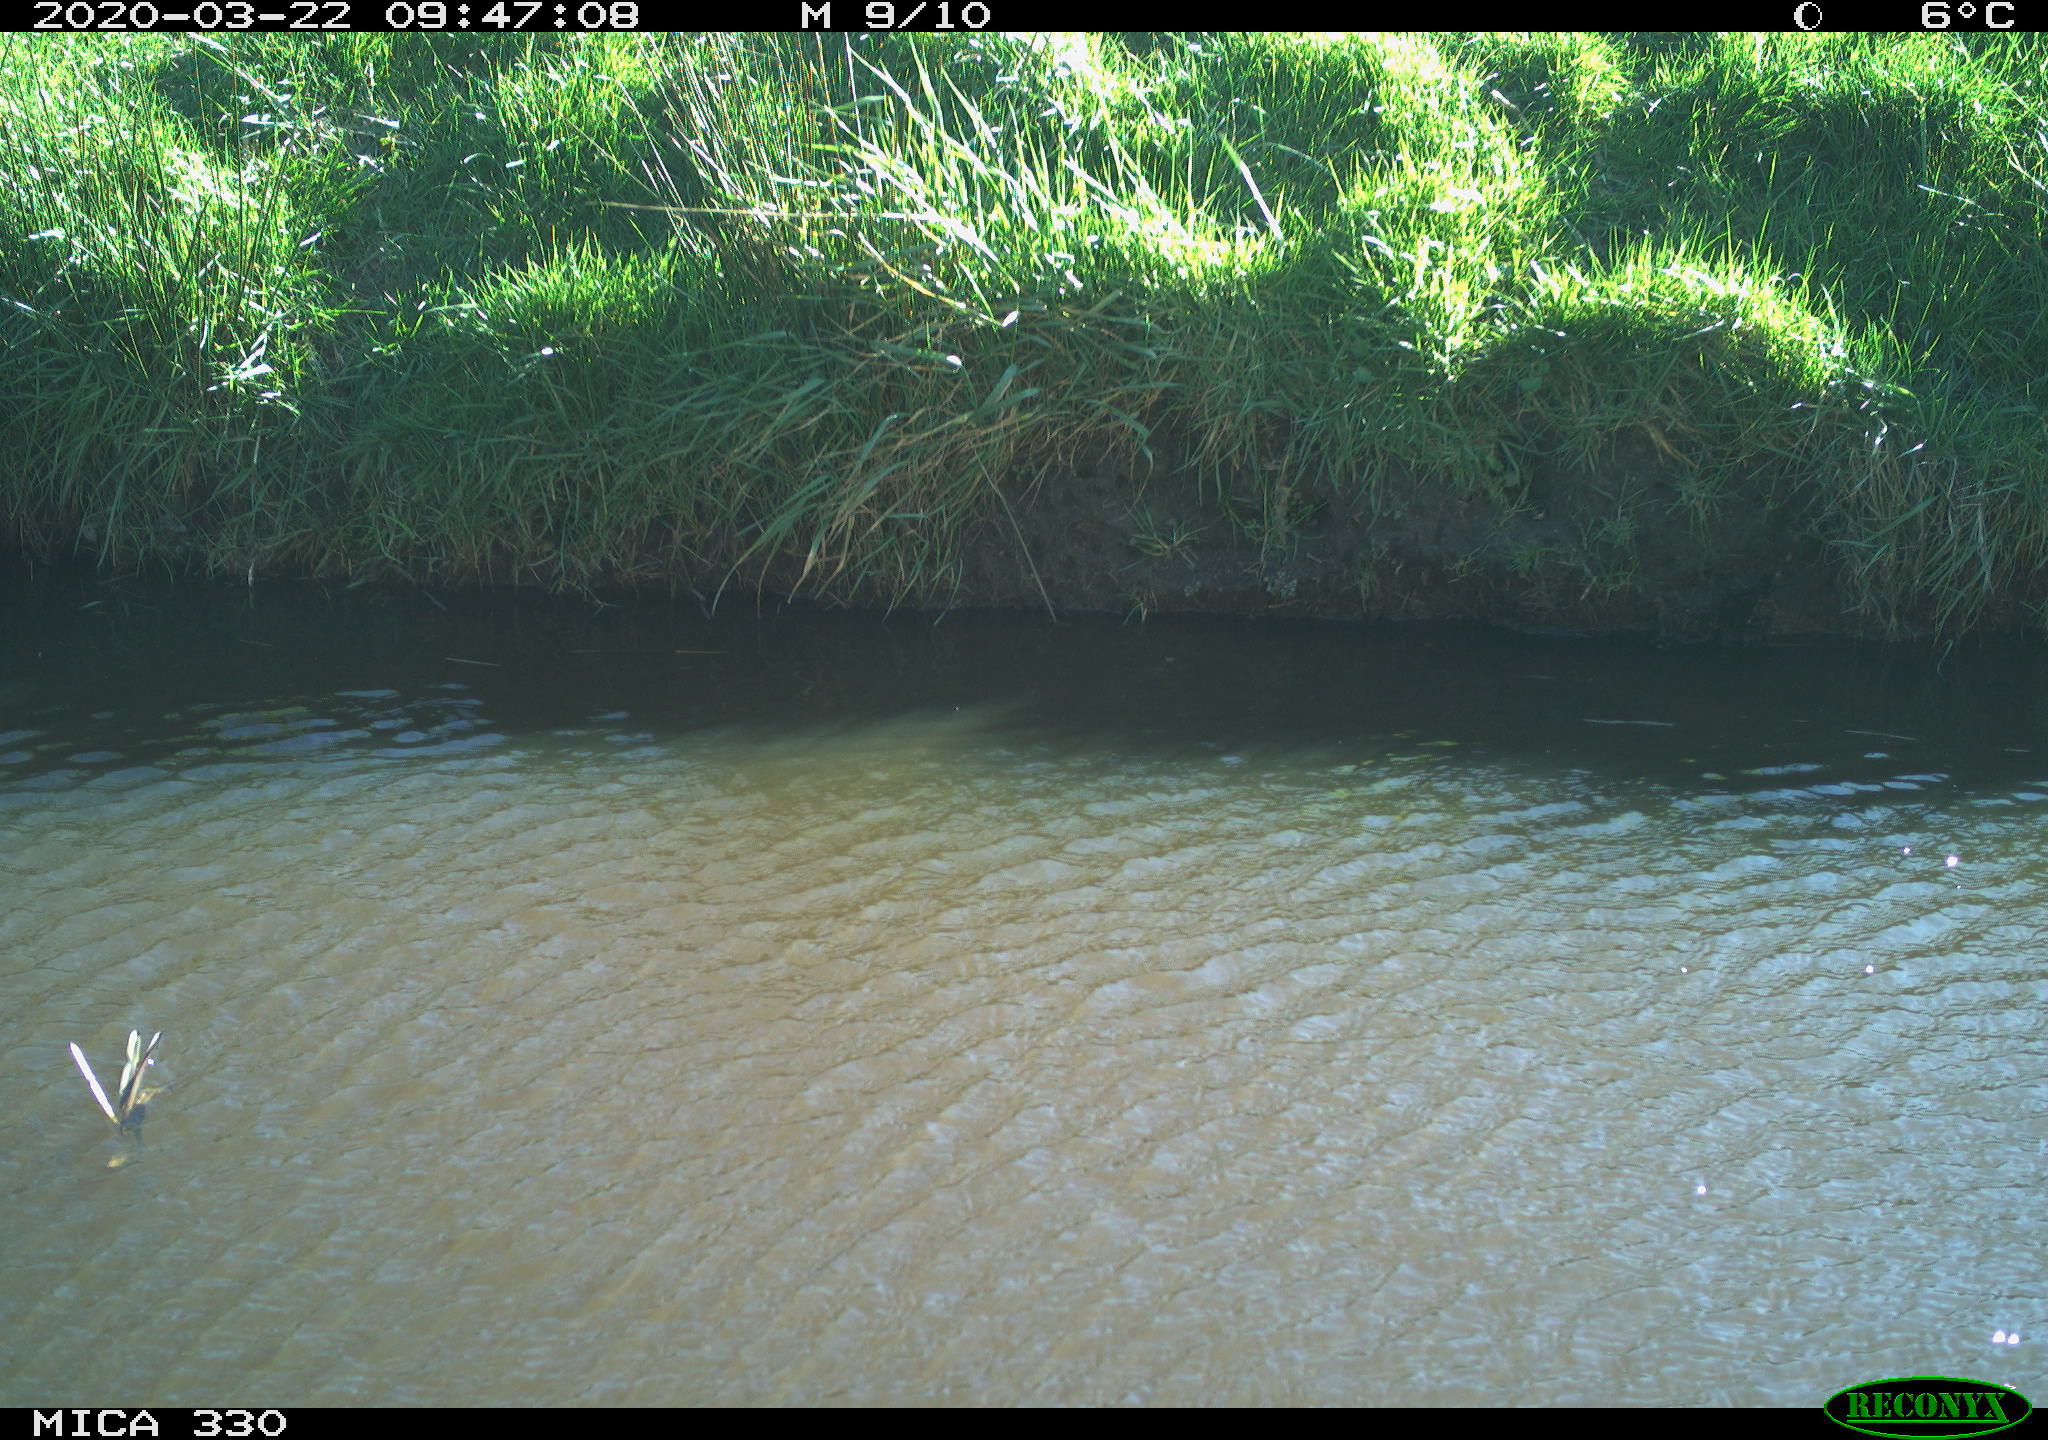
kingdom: Animalia
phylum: Chordata
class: Aves
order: Anseriformes
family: Anatidae
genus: Anas
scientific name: Anas platyrhynchos
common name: Mallard
